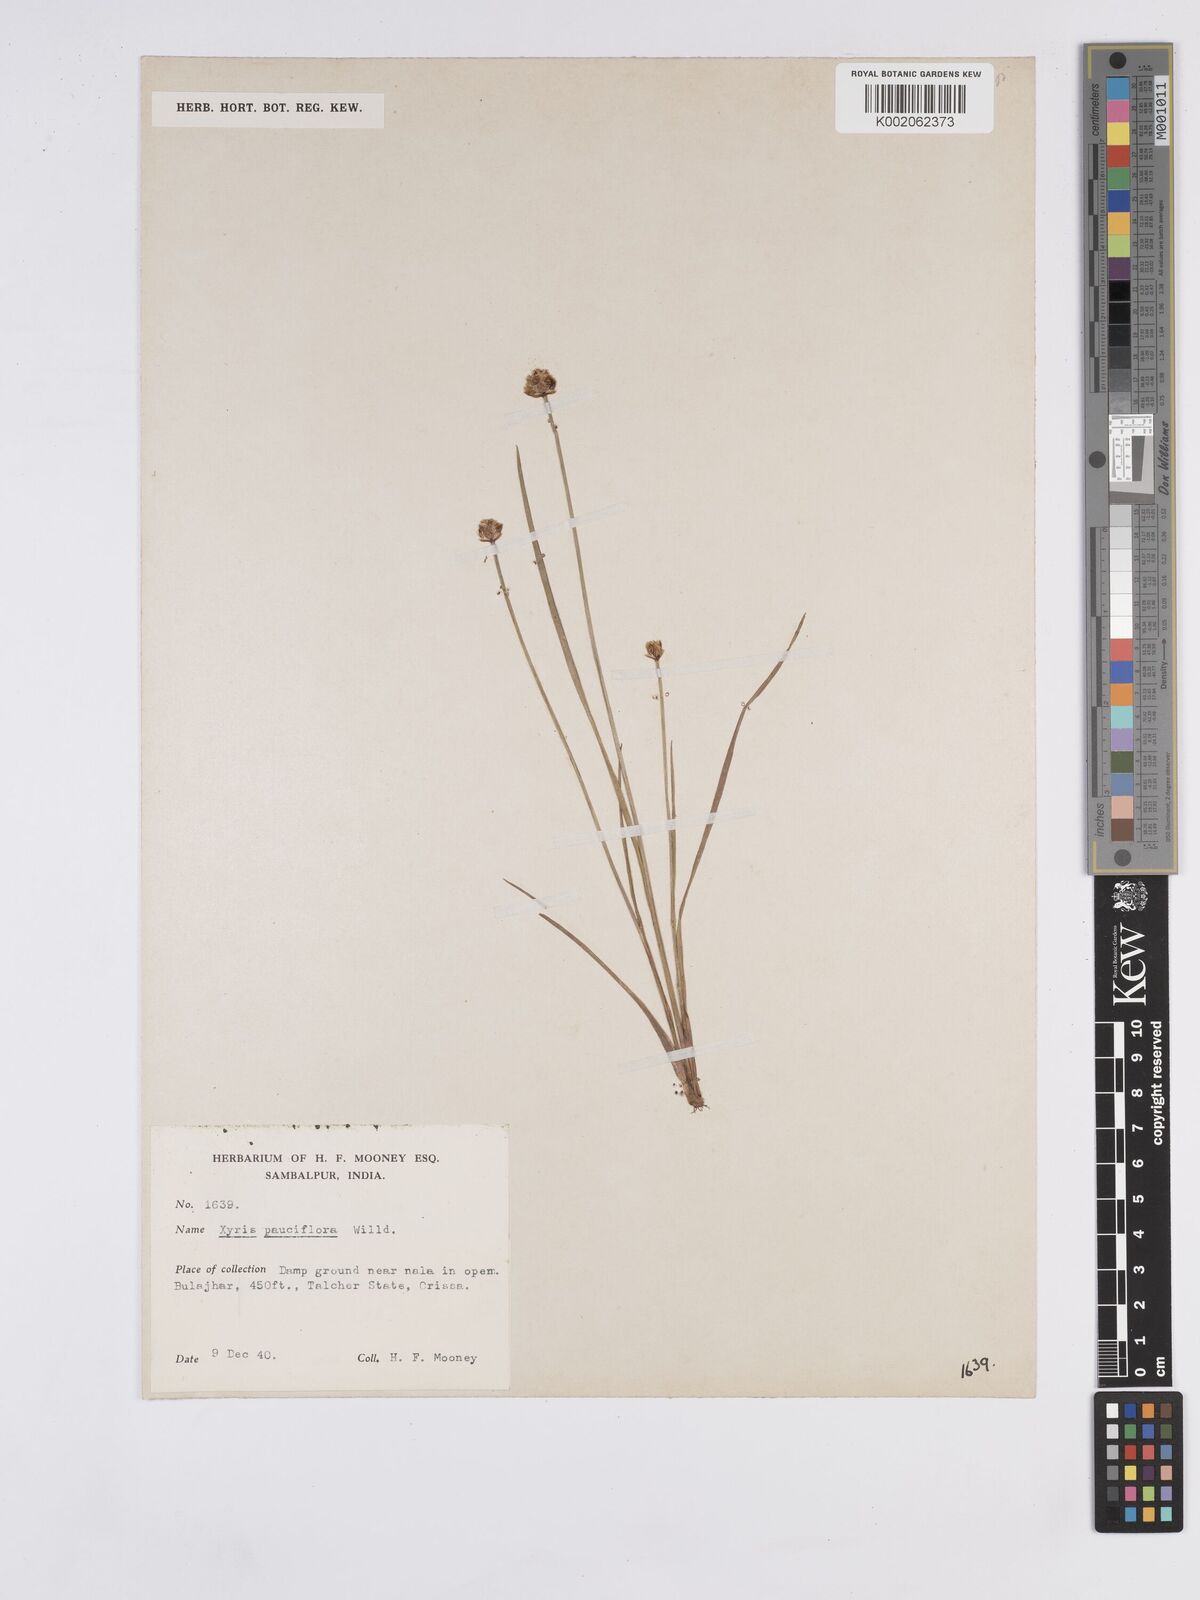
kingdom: Plantae
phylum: Tracheophyta
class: Liliopsida
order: Poales
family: Xyridaceae
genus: Xyris
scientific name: Xyris pauciflora
